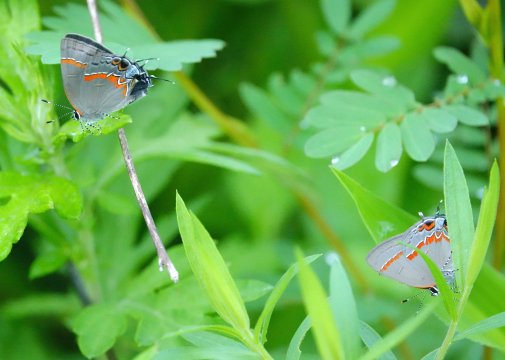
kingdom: Animalia
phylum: Arthropoda
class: Insecta
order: Lepidoptera
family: Lycaenidae
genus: Calycopis
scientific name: Calycopis cecrops
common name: Red-banded Hairstreak
